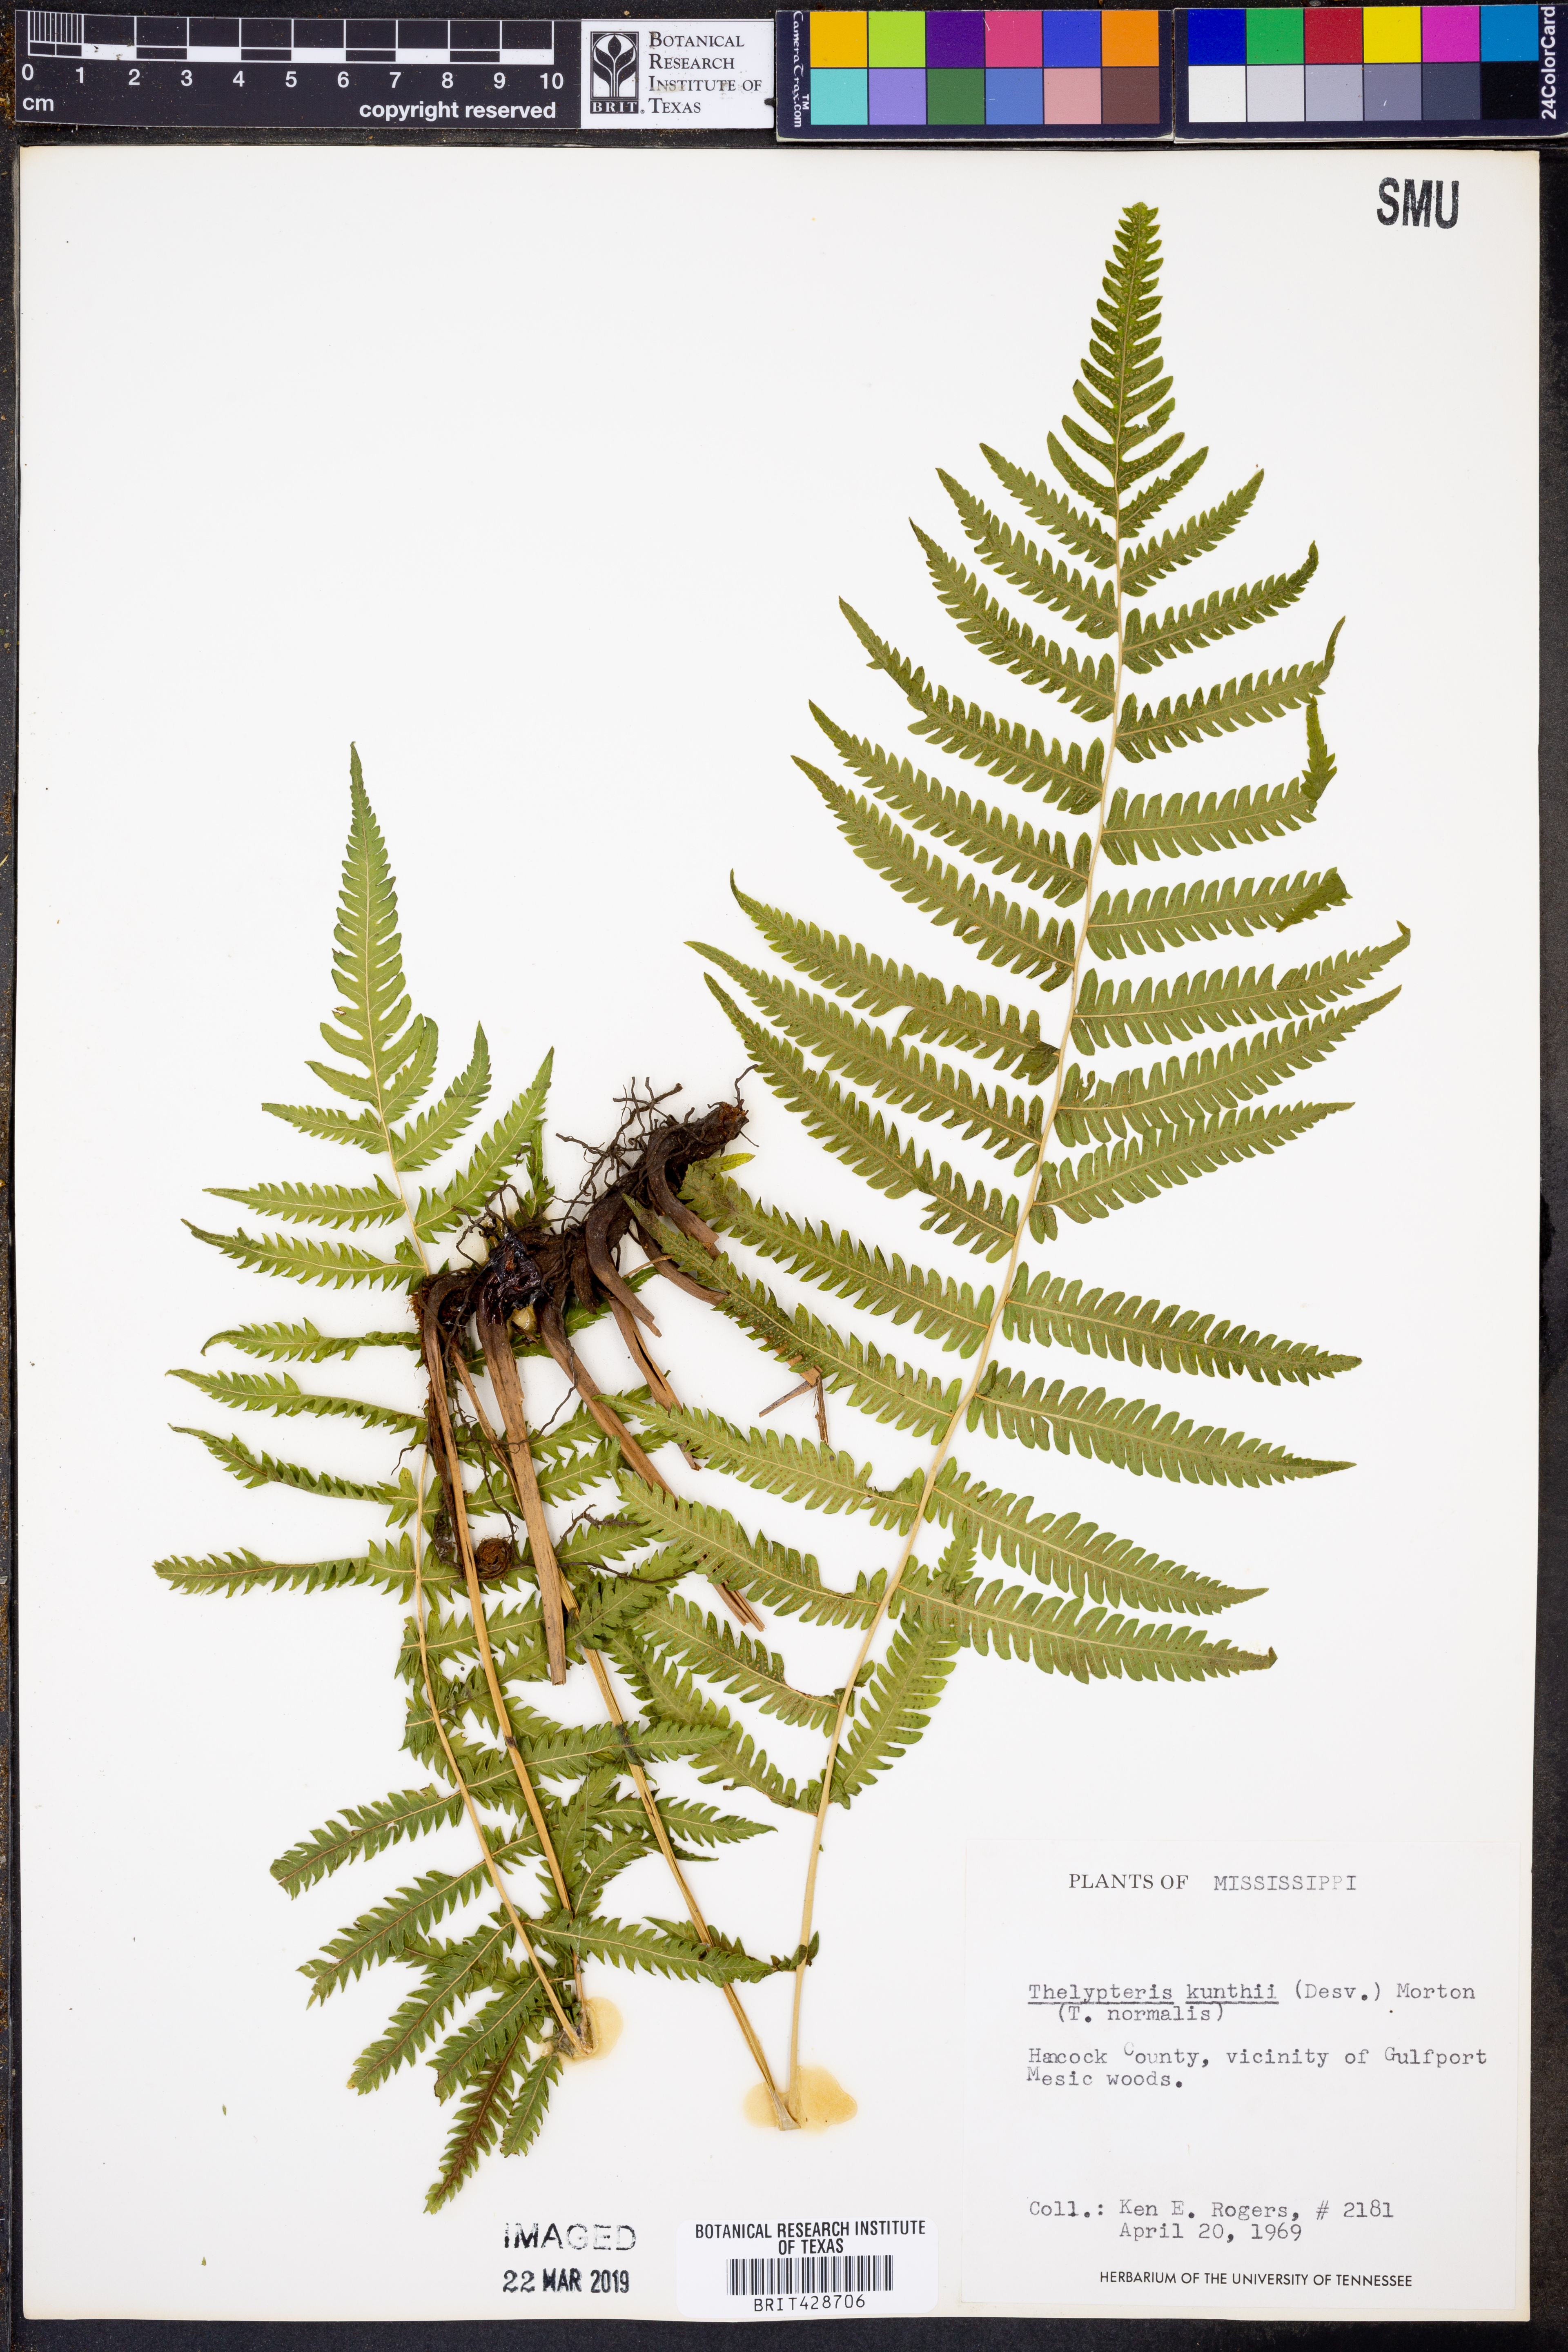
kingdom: Plantae
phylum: Tracheophyta
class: Polypodiopsida
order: Polypodiales
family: Thelypteridaceae
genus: Pelazoneuron
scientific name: Pelazoneuron kunthii
